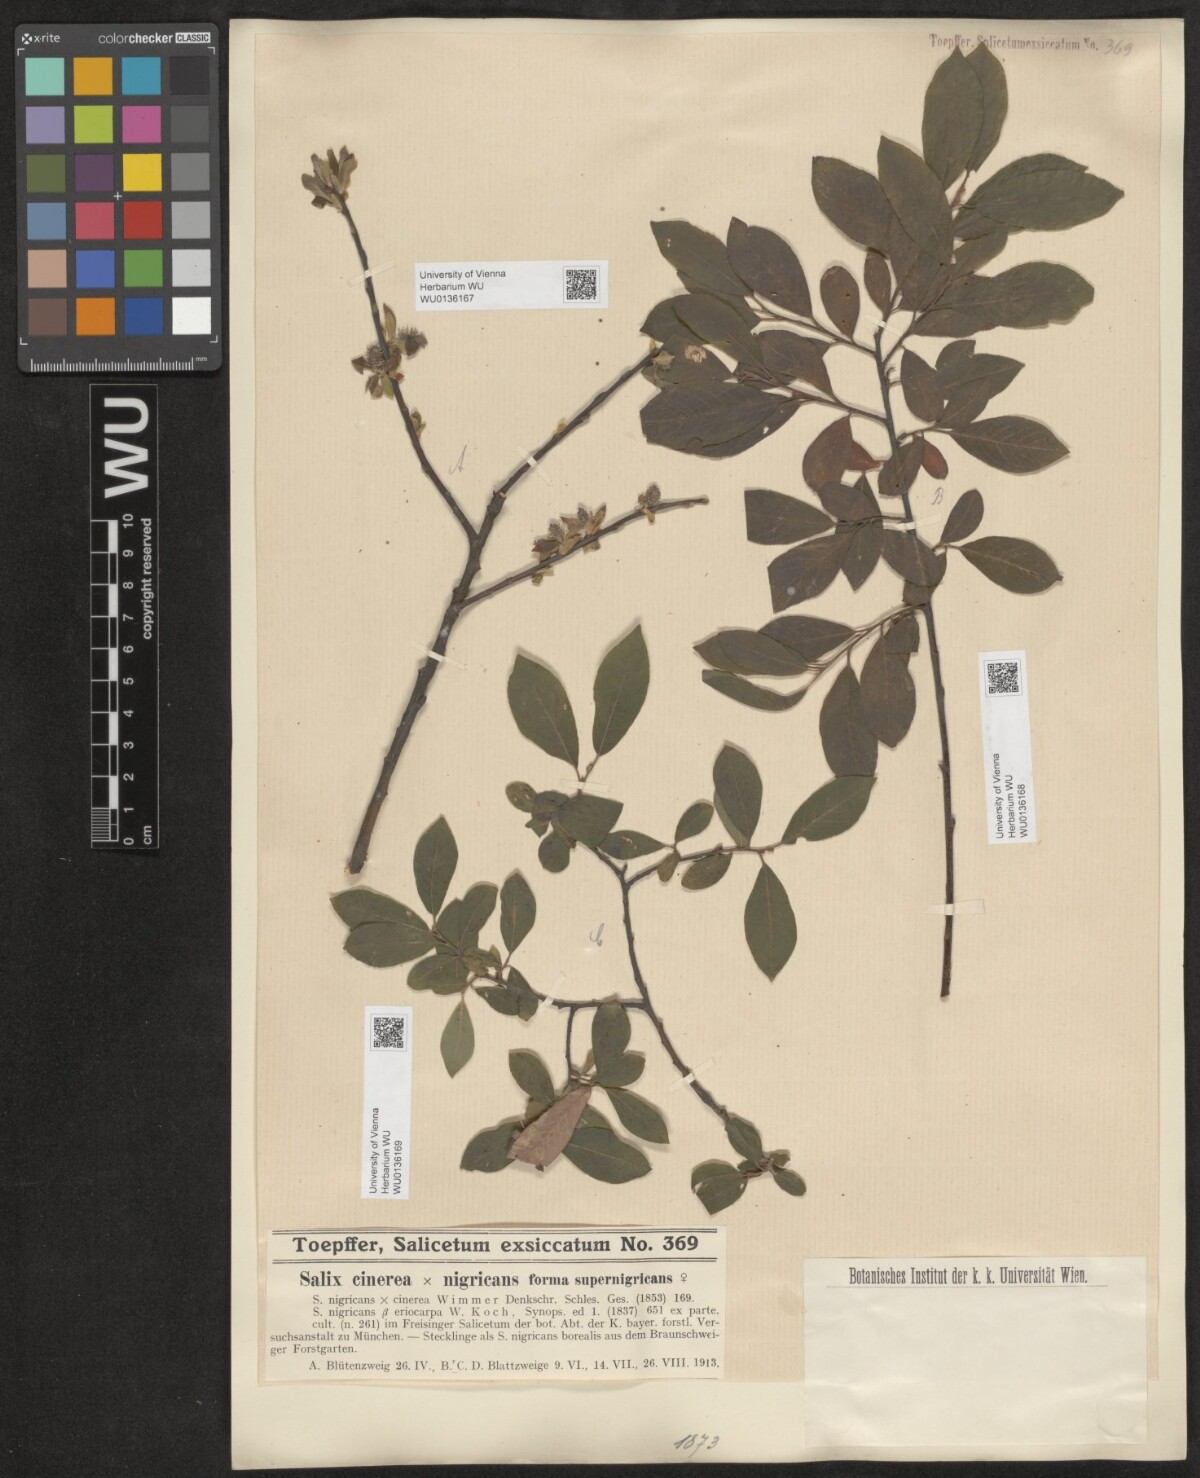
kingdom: Plantae
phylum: Tracheophyta
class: Magnoliopsida
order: Malpighiales
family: Salicaceae
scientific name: Salicaceae
